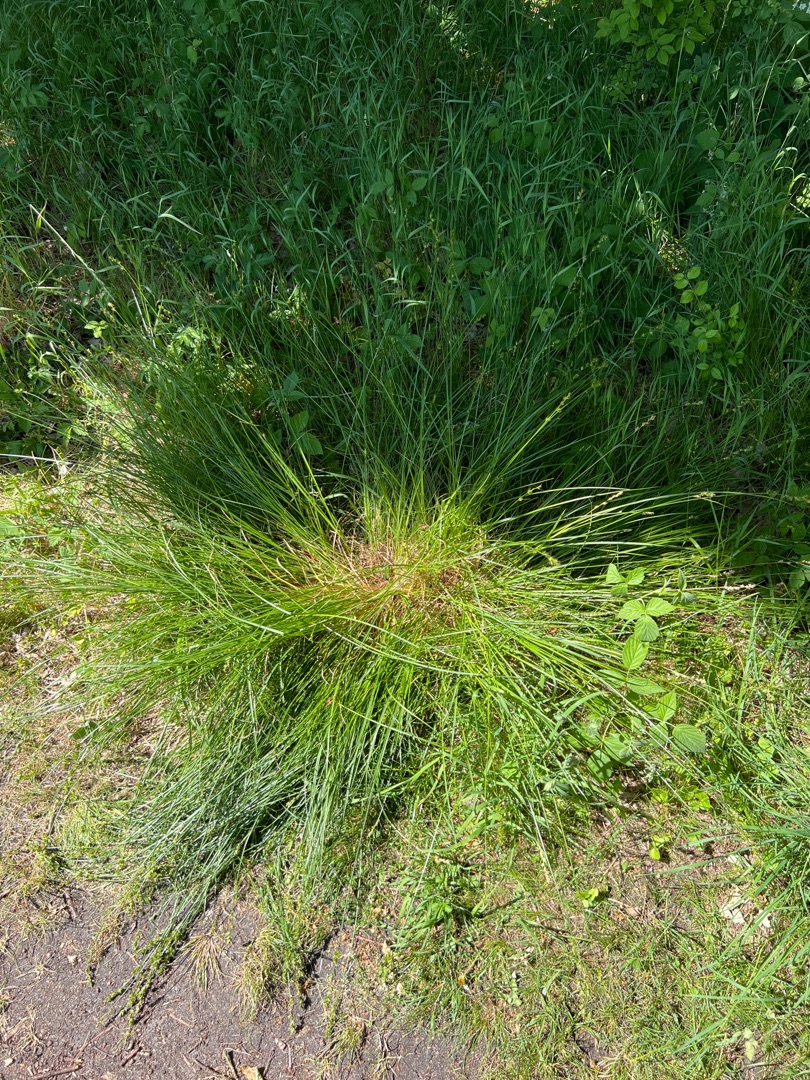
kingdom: Plantae
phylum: Tracheophyta
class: Liliopsida
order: Poales
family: Cyperaceae
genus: Carex
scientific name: Carex leersii
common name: Mellembrudt star (underart)
